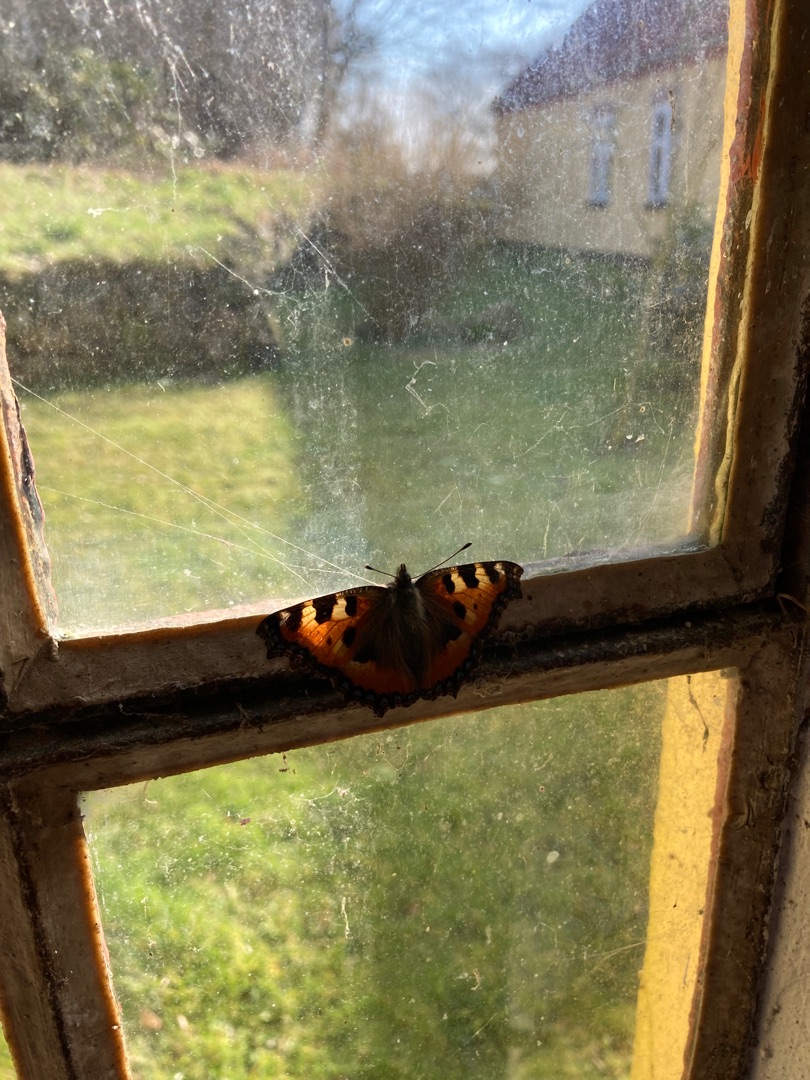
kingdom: Animalia
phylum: Arthropoda
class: Insecta
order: Lepidoptera
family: Nymphalidae
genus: Aglais
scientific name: Aglais urticae
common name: Nældens takvinge
